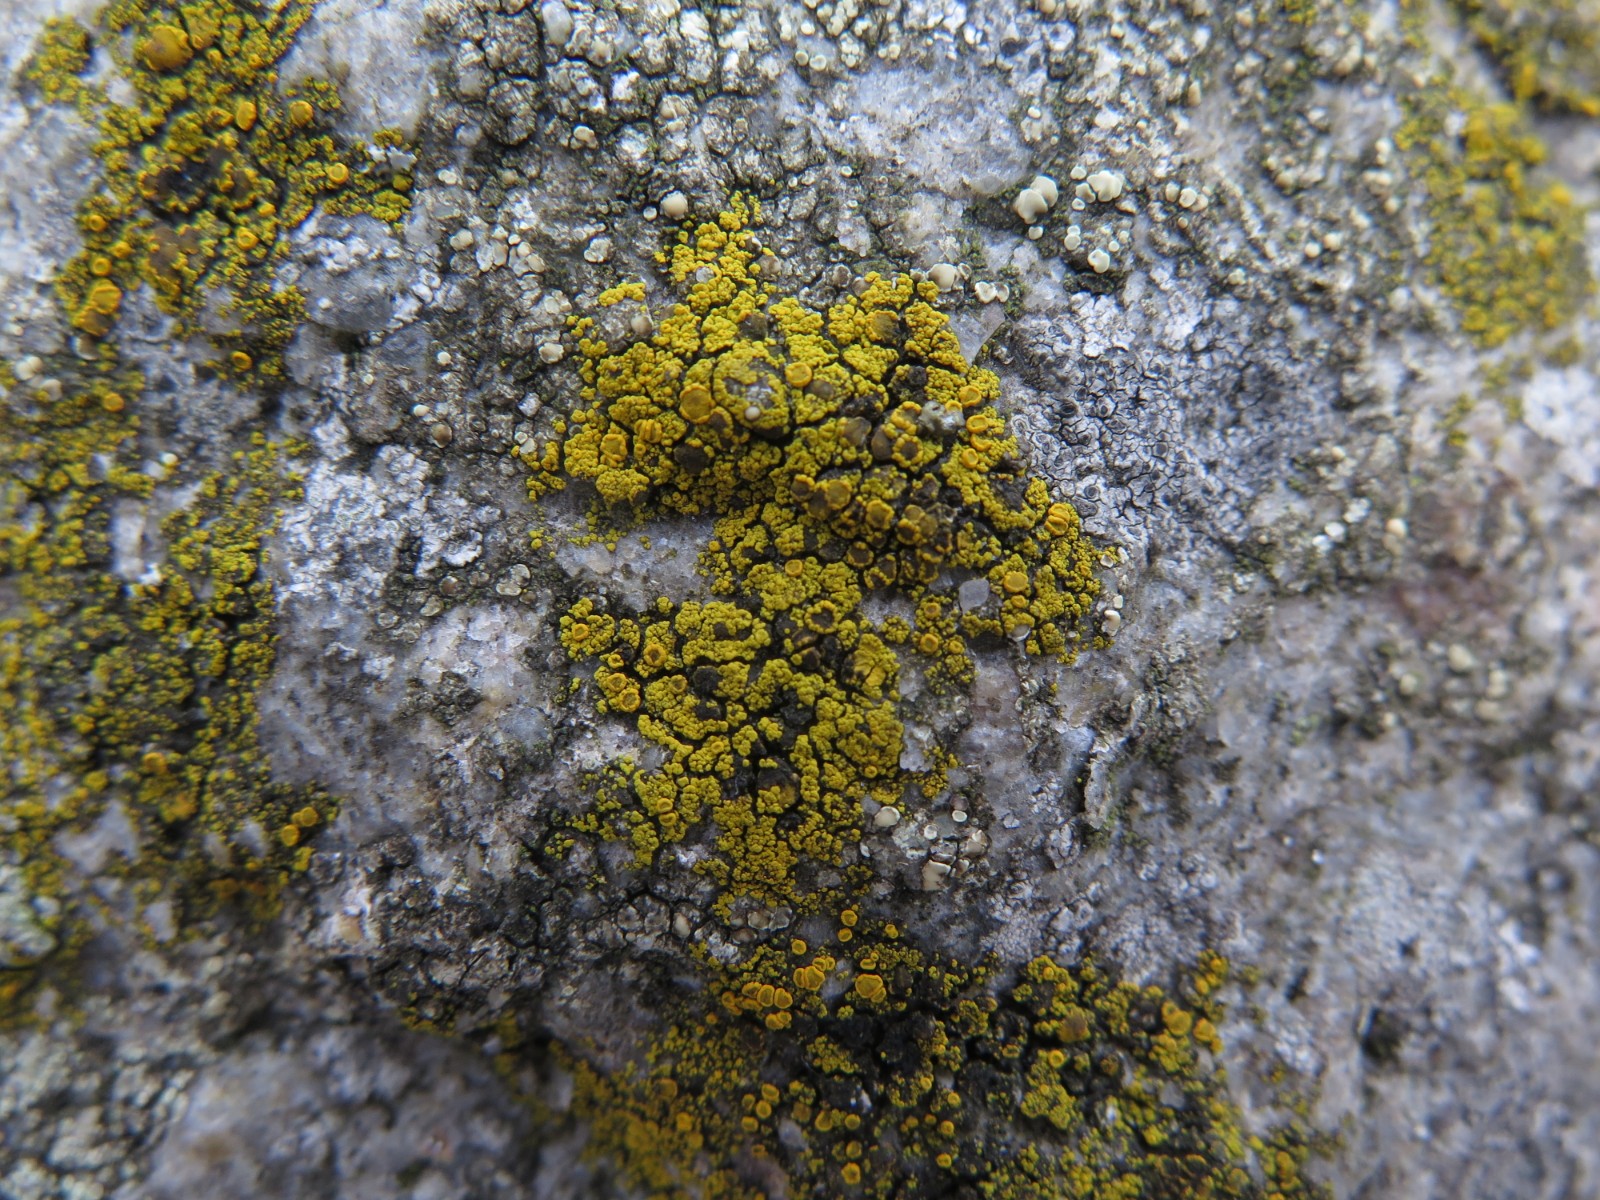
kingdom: Fungi
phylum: Ascomycota
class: Candelariomycetes
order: Candelariales
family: Candelariaceae
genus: Candelariella
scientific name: Candelariella vitellina
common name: almindelig æggeblommelav
